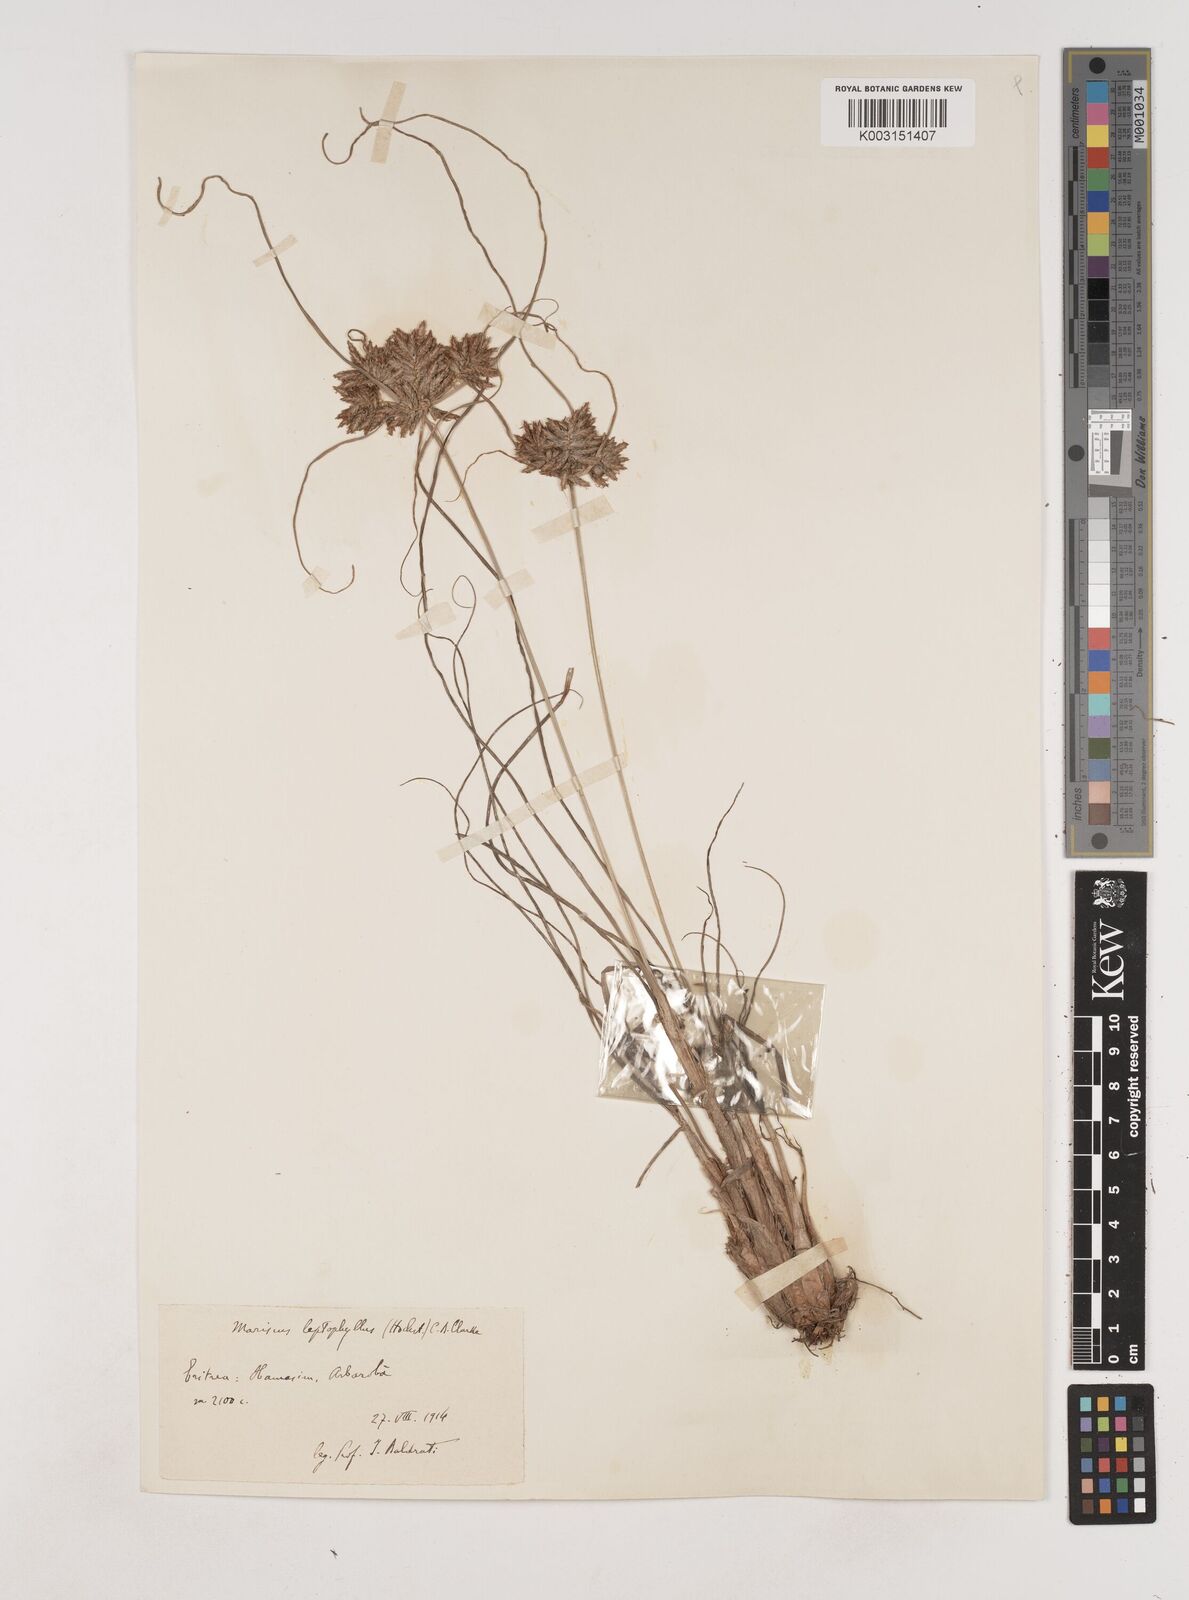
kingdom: Plantae
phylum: Tracheophyta
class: Liliopsida
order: Poales
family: Cyperaceae
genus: Cyperus
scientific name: Cyperus amauropus
